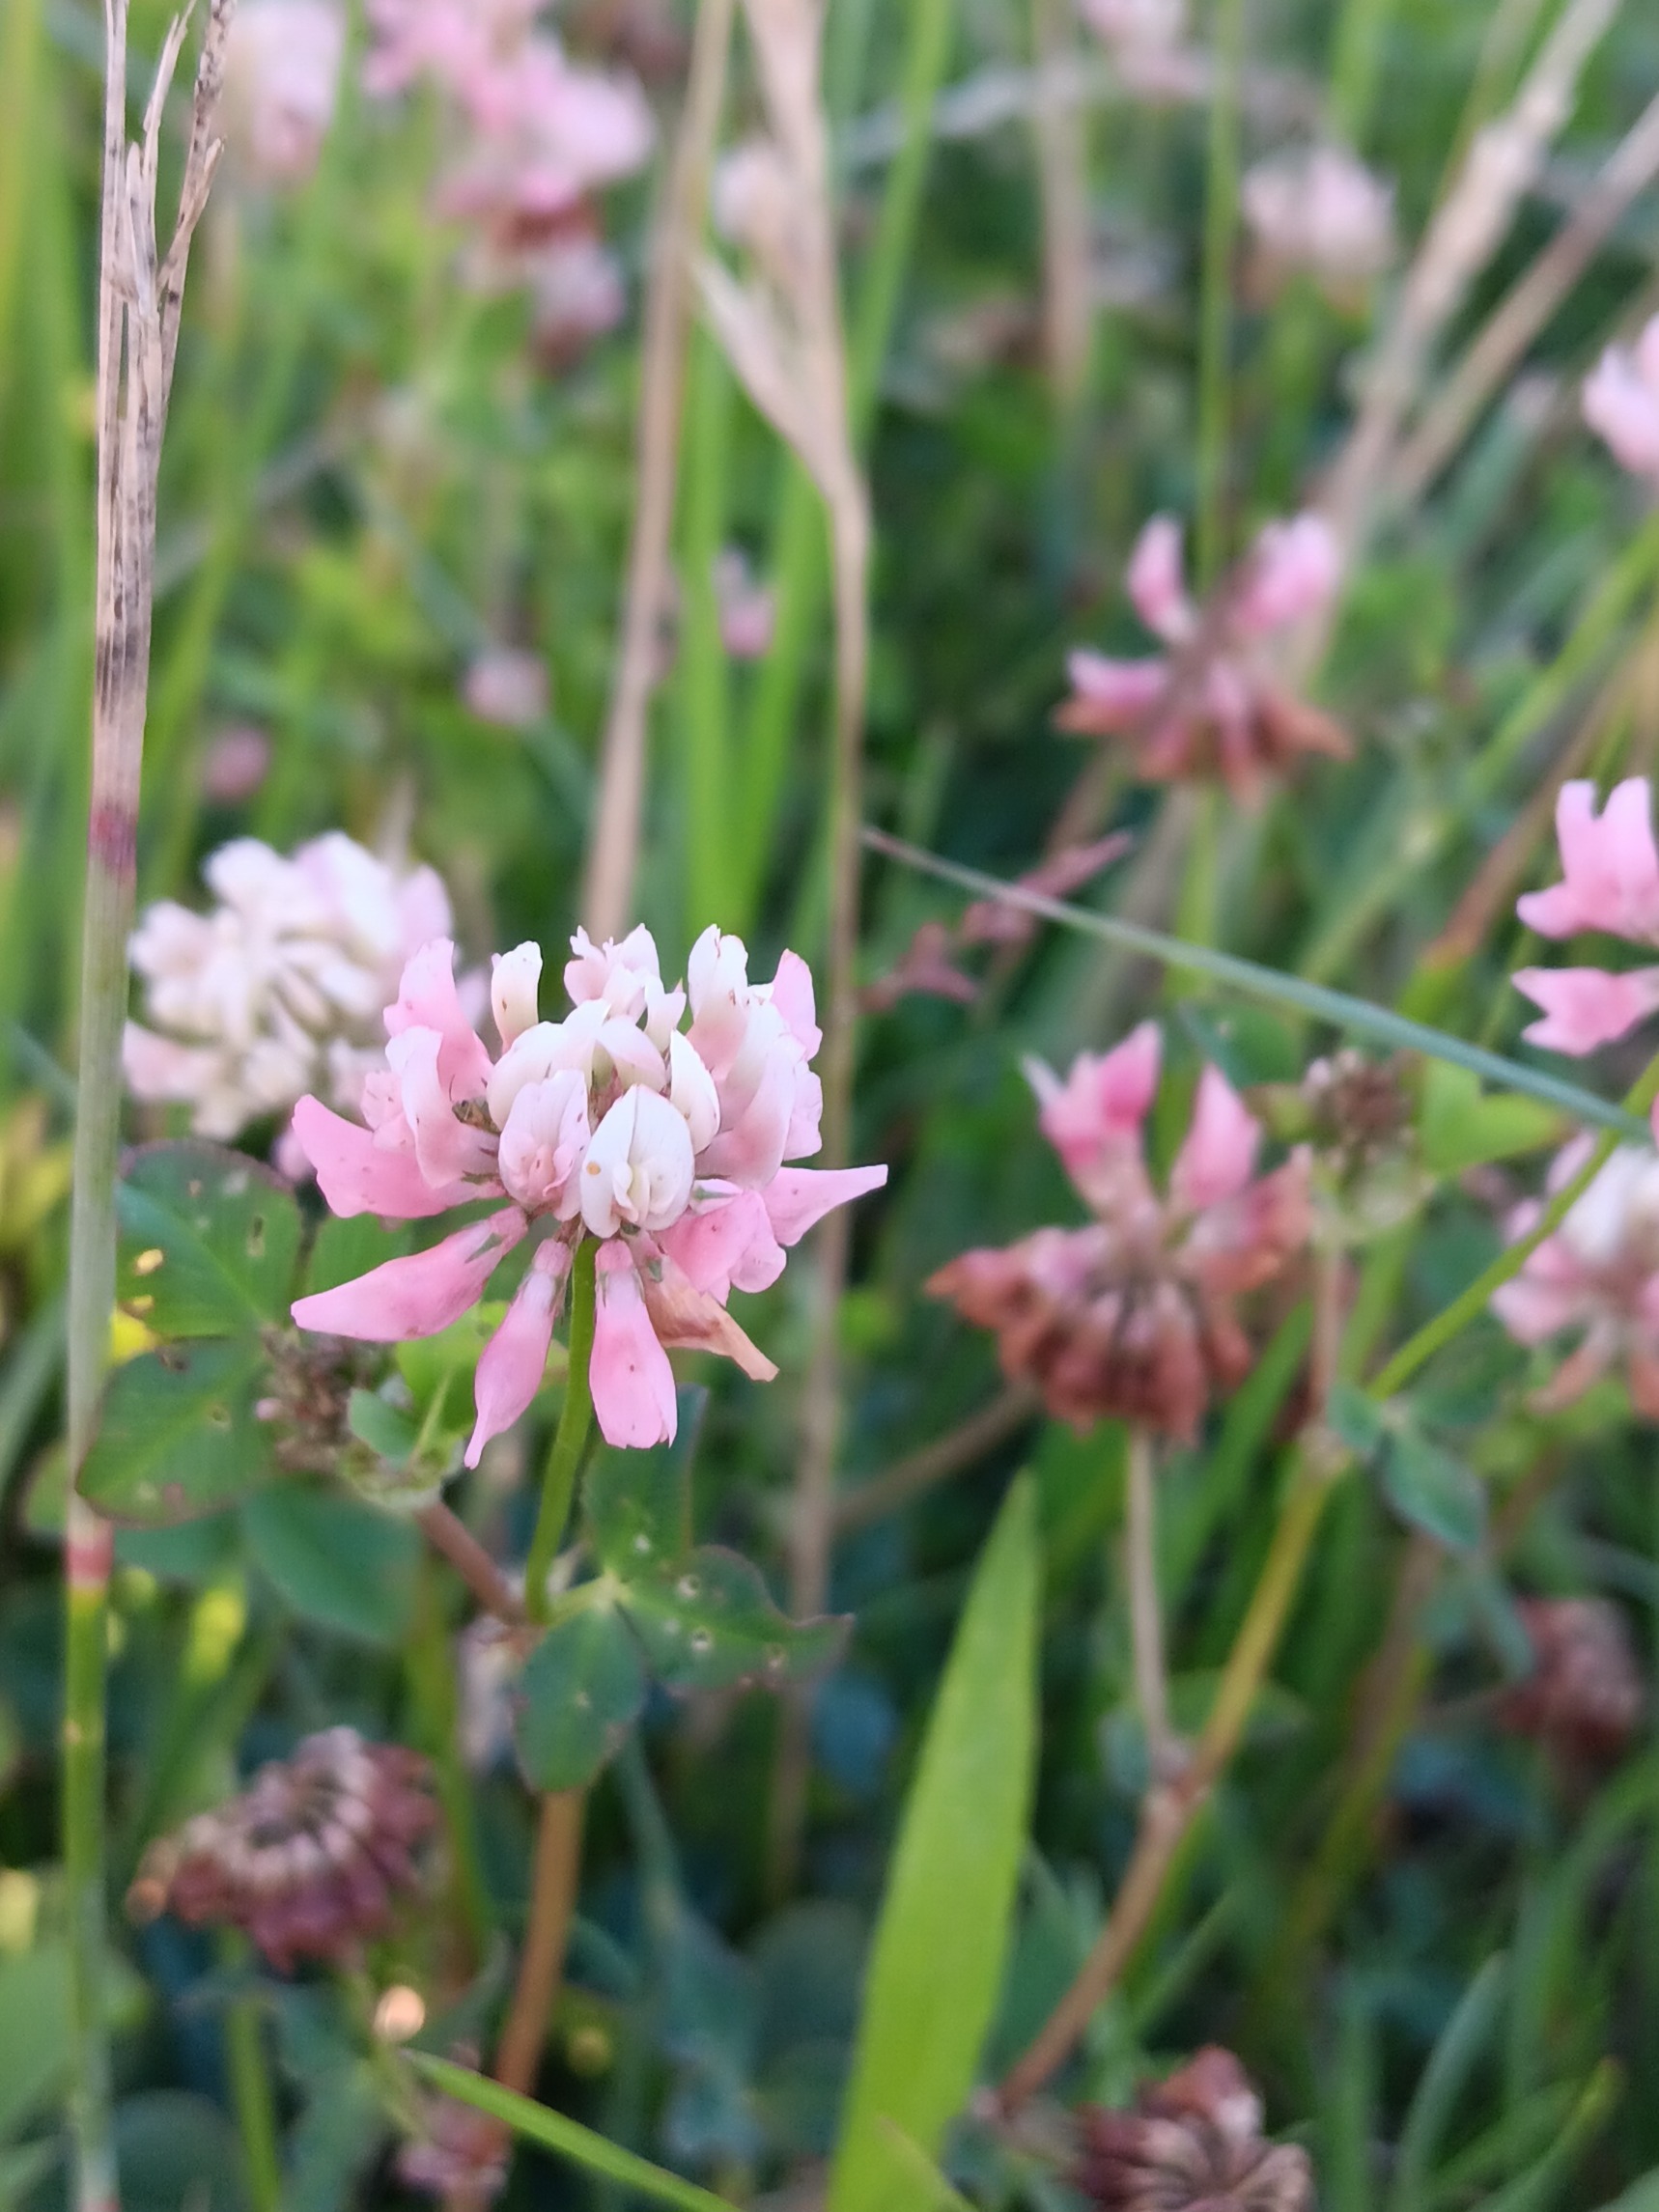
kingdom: Plantae
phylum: Tracheophyta
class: Magnoliopsida
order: Fabales
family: Fabaceae
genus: Trifolium
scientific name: Trifolium hybridum
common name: Alsike-kløver
